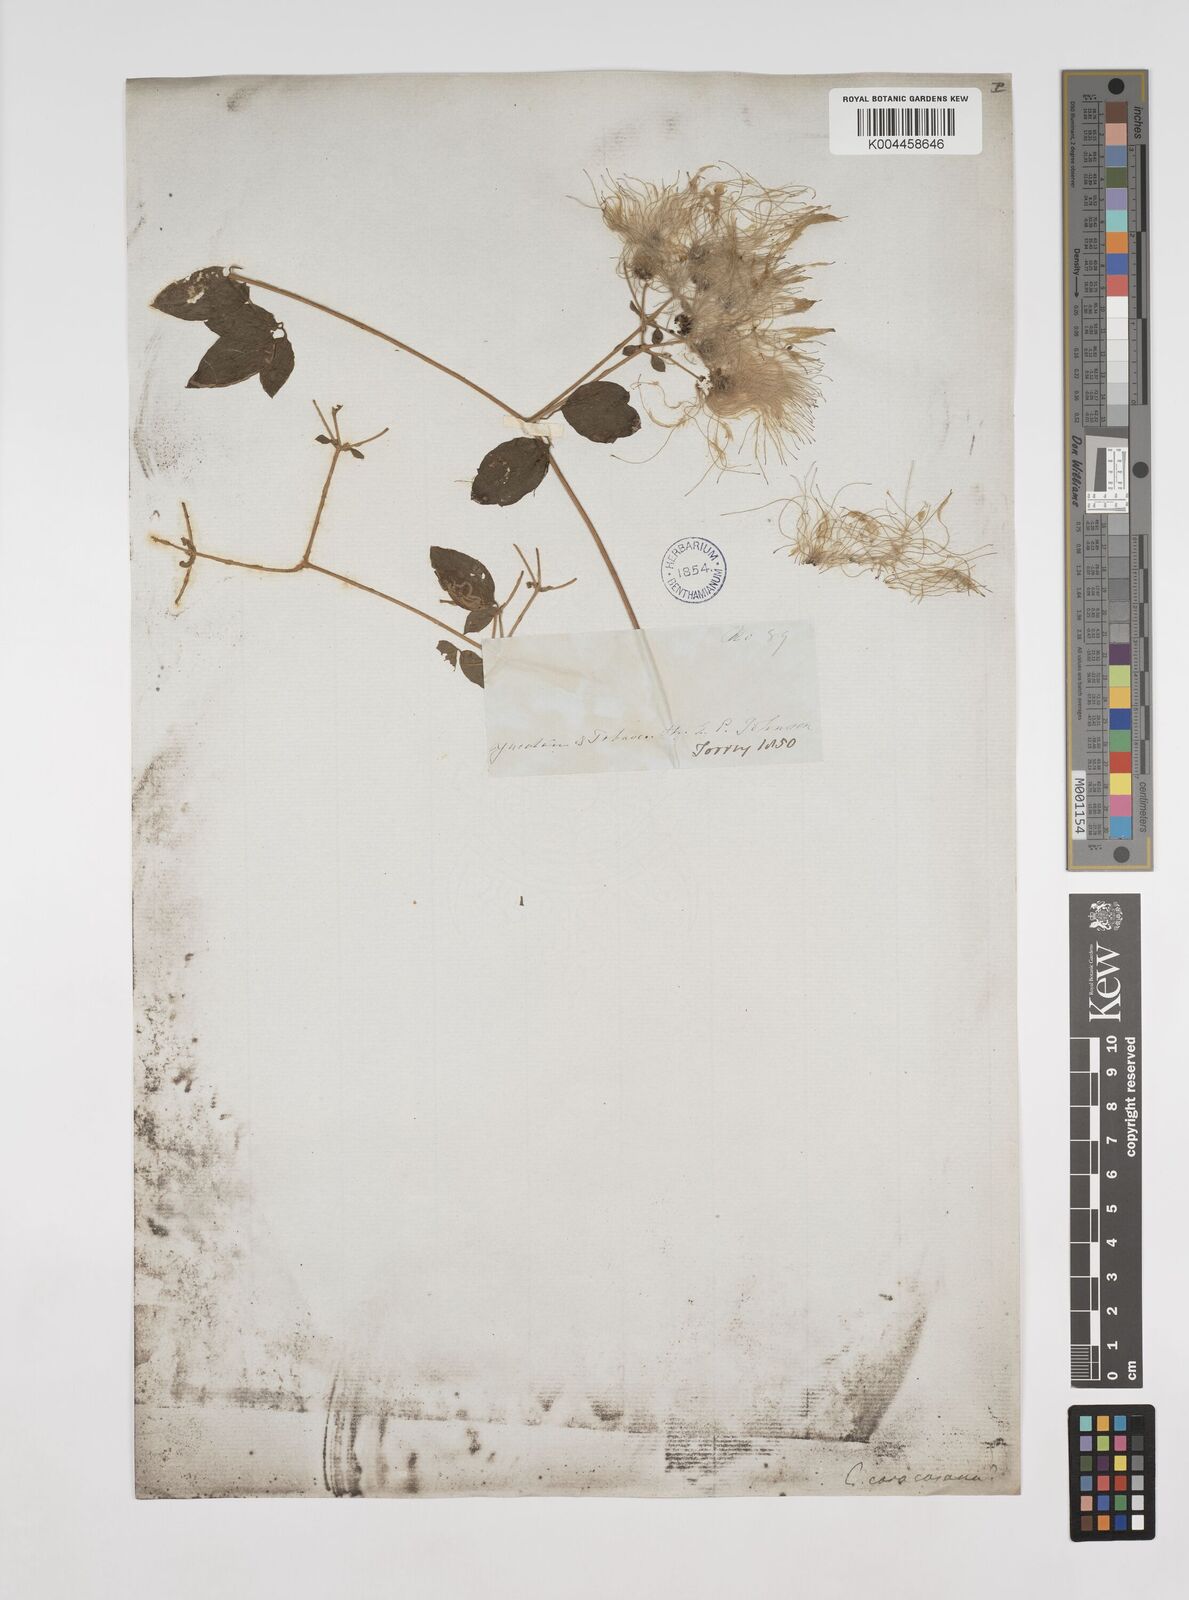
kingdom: Plantae
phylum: Tracheophyta
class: Magnoliopsida
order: Ranunculales
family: Ranunculaceae
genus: Clematis
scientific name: Clematis dioica
